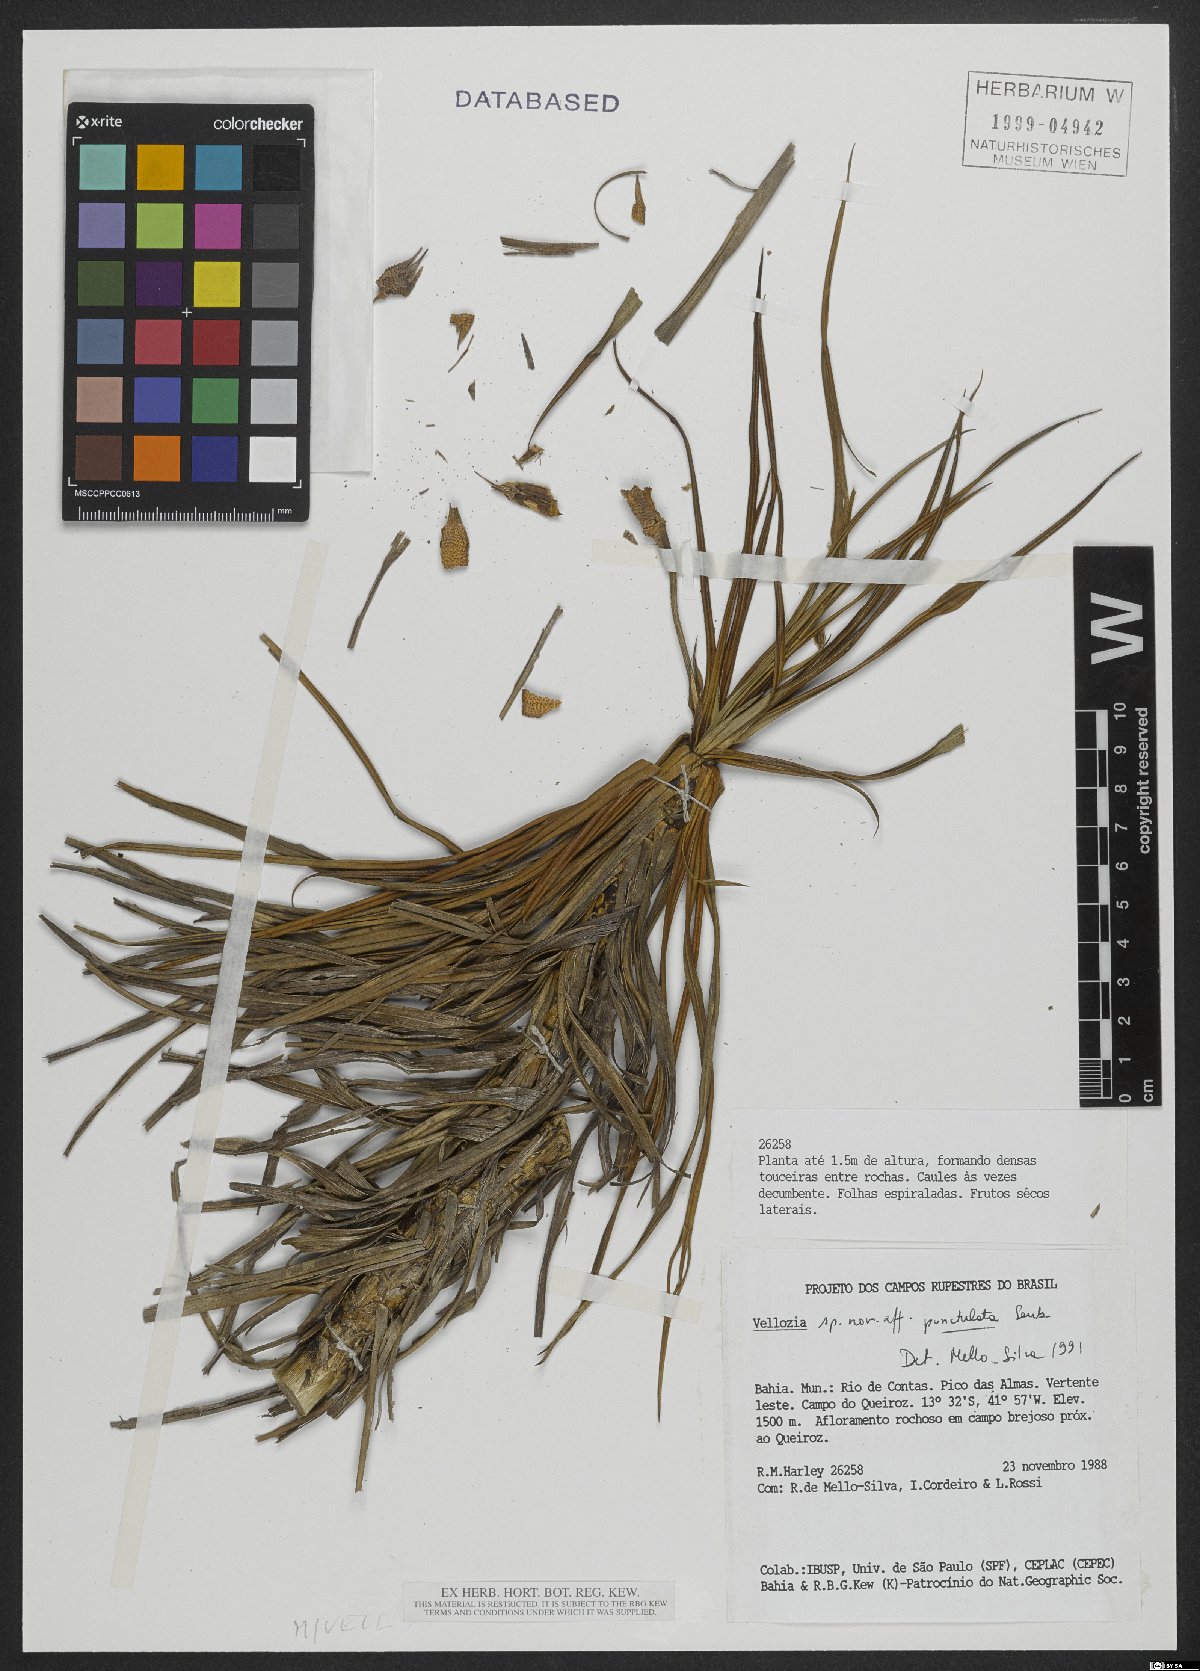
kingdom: Plantae
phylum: Tracheophyta
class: Liliopsida
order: Pandanales
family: Velloziaceae
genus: Vellozia
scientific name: Vellozia punctulata
